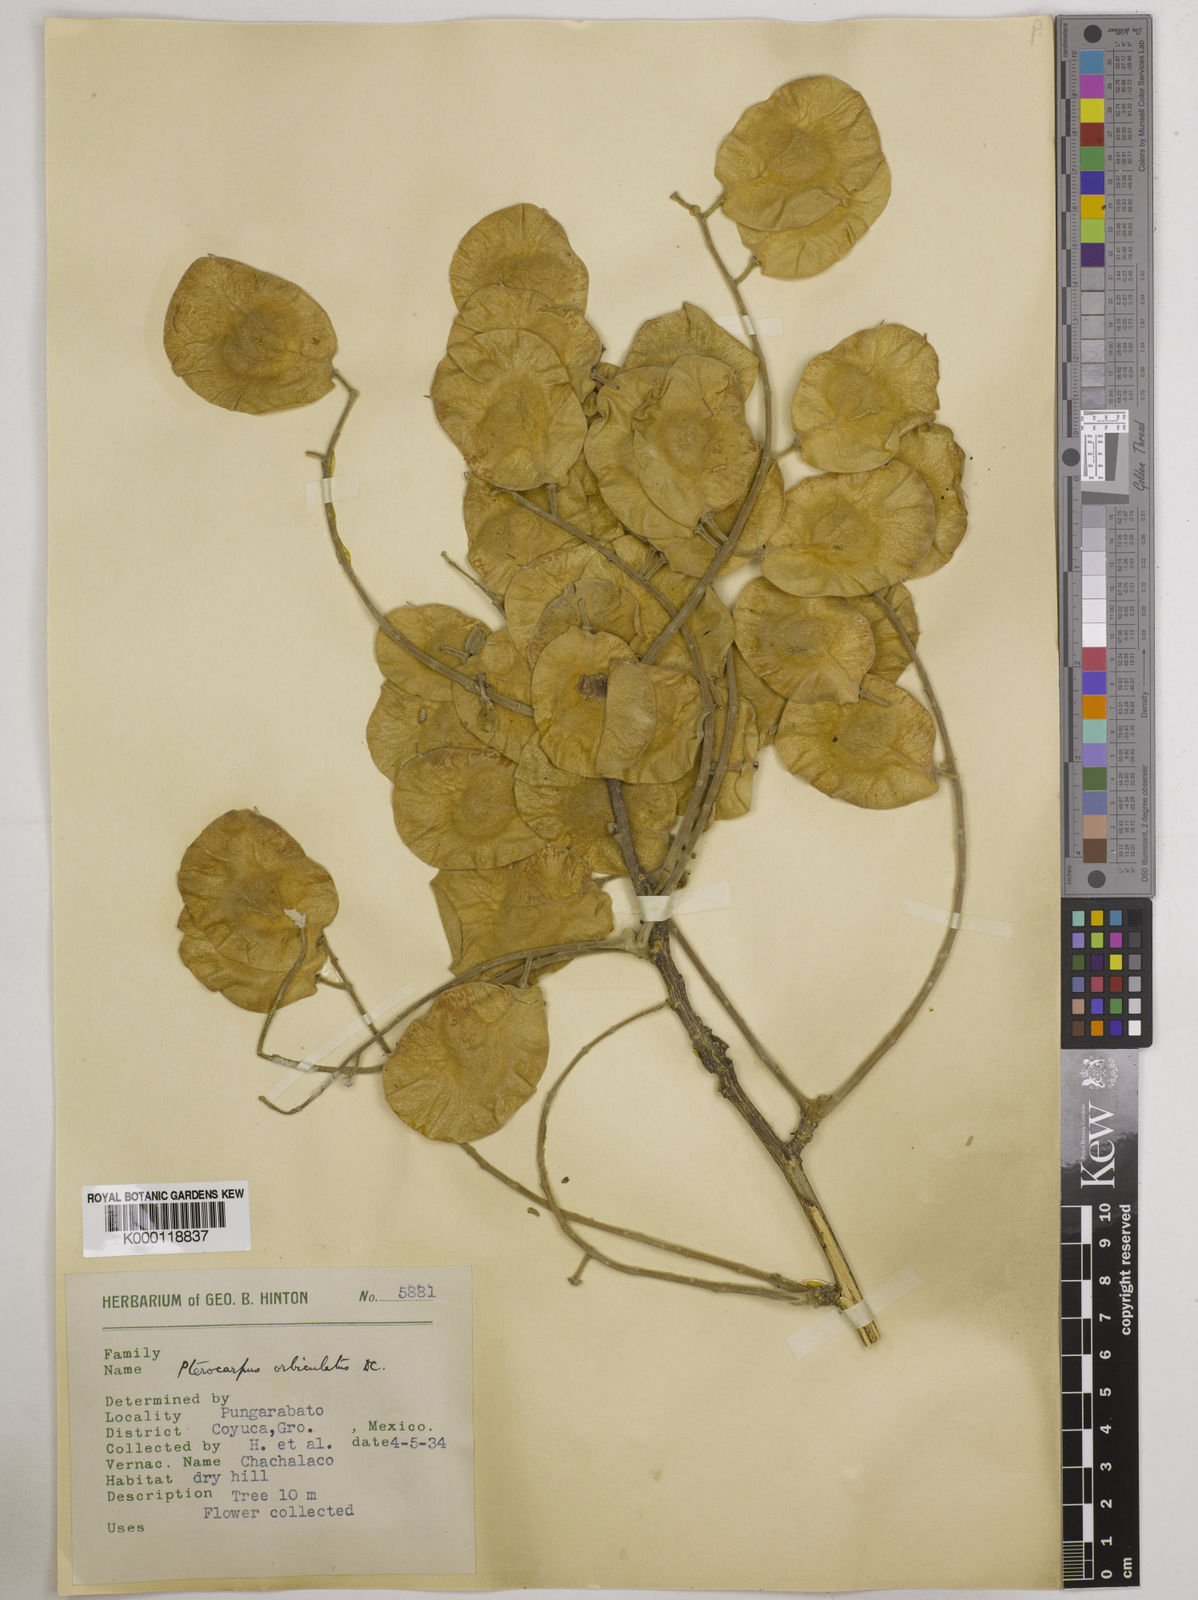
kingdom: Plantae
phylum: Tracheophyta
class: Magnoliopsida
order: Fabales
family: Fabaceae
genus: Pterocarpus
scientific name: Pterocarpus orbiculatus
